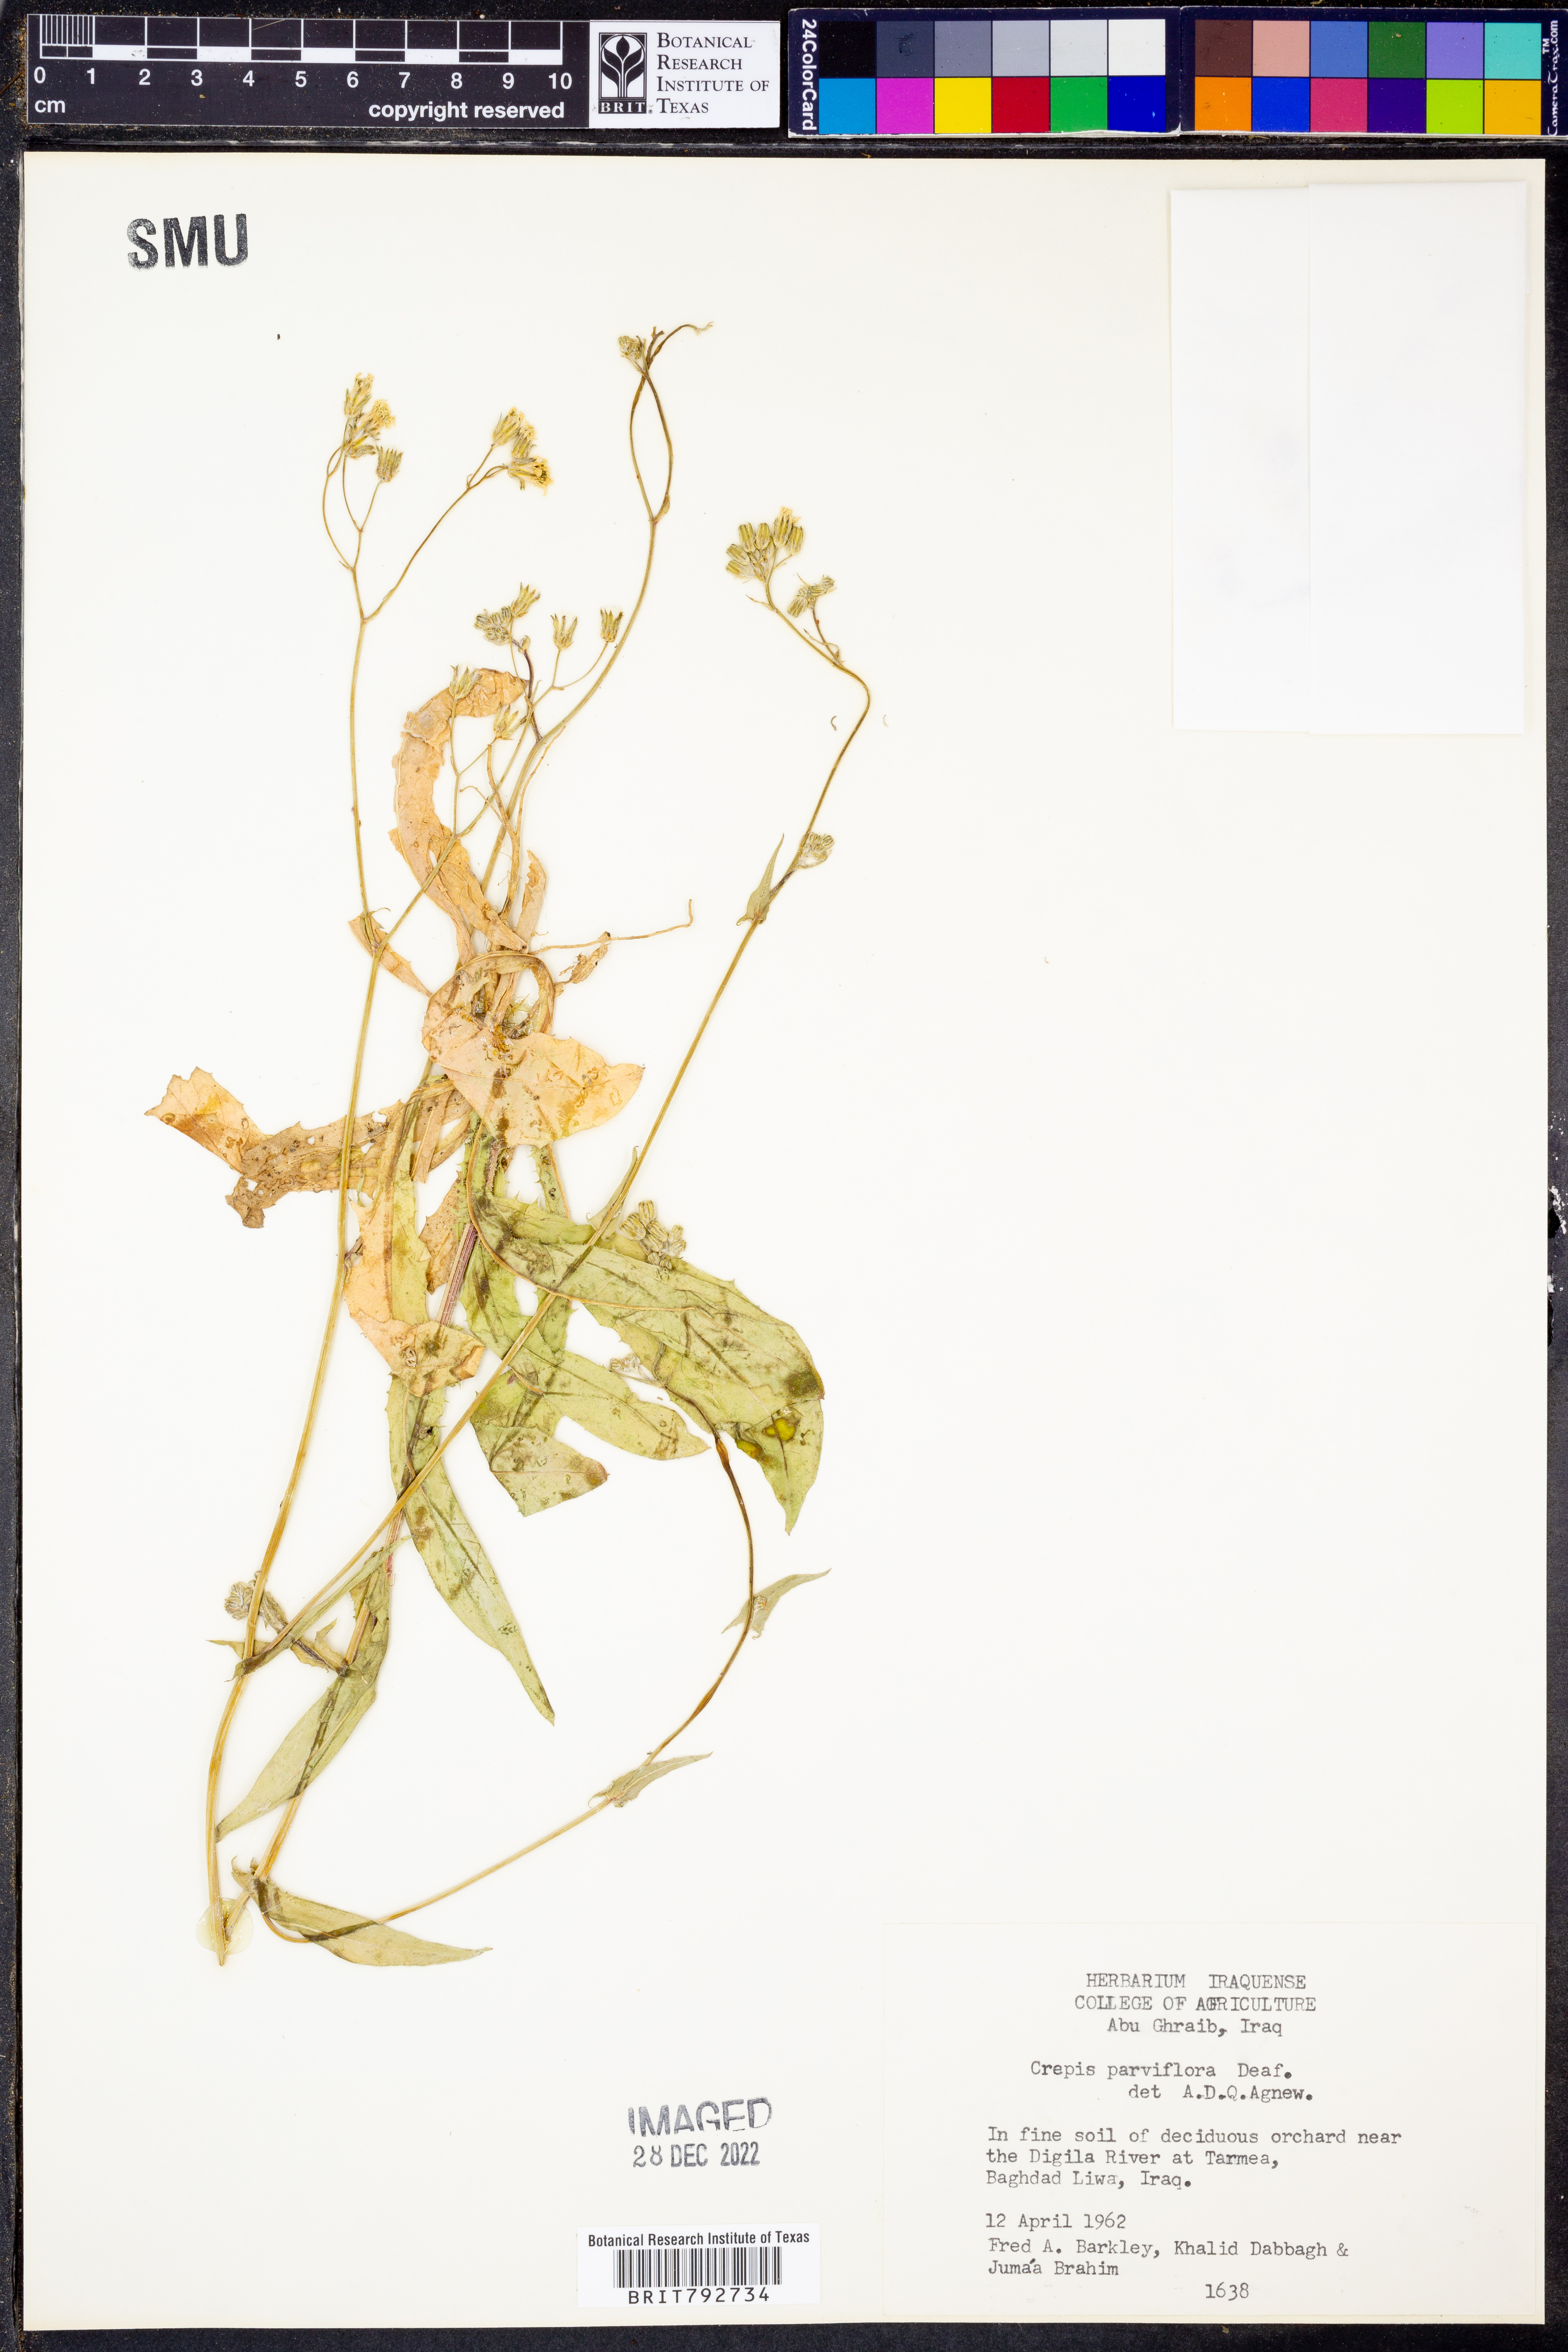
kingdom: Plantae
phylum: Tracheophyta
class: Magnoliopsida
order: Asterales
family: Asteraceae
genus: Crepis
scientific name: Crepis micrantha
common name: Hawk's-beard
